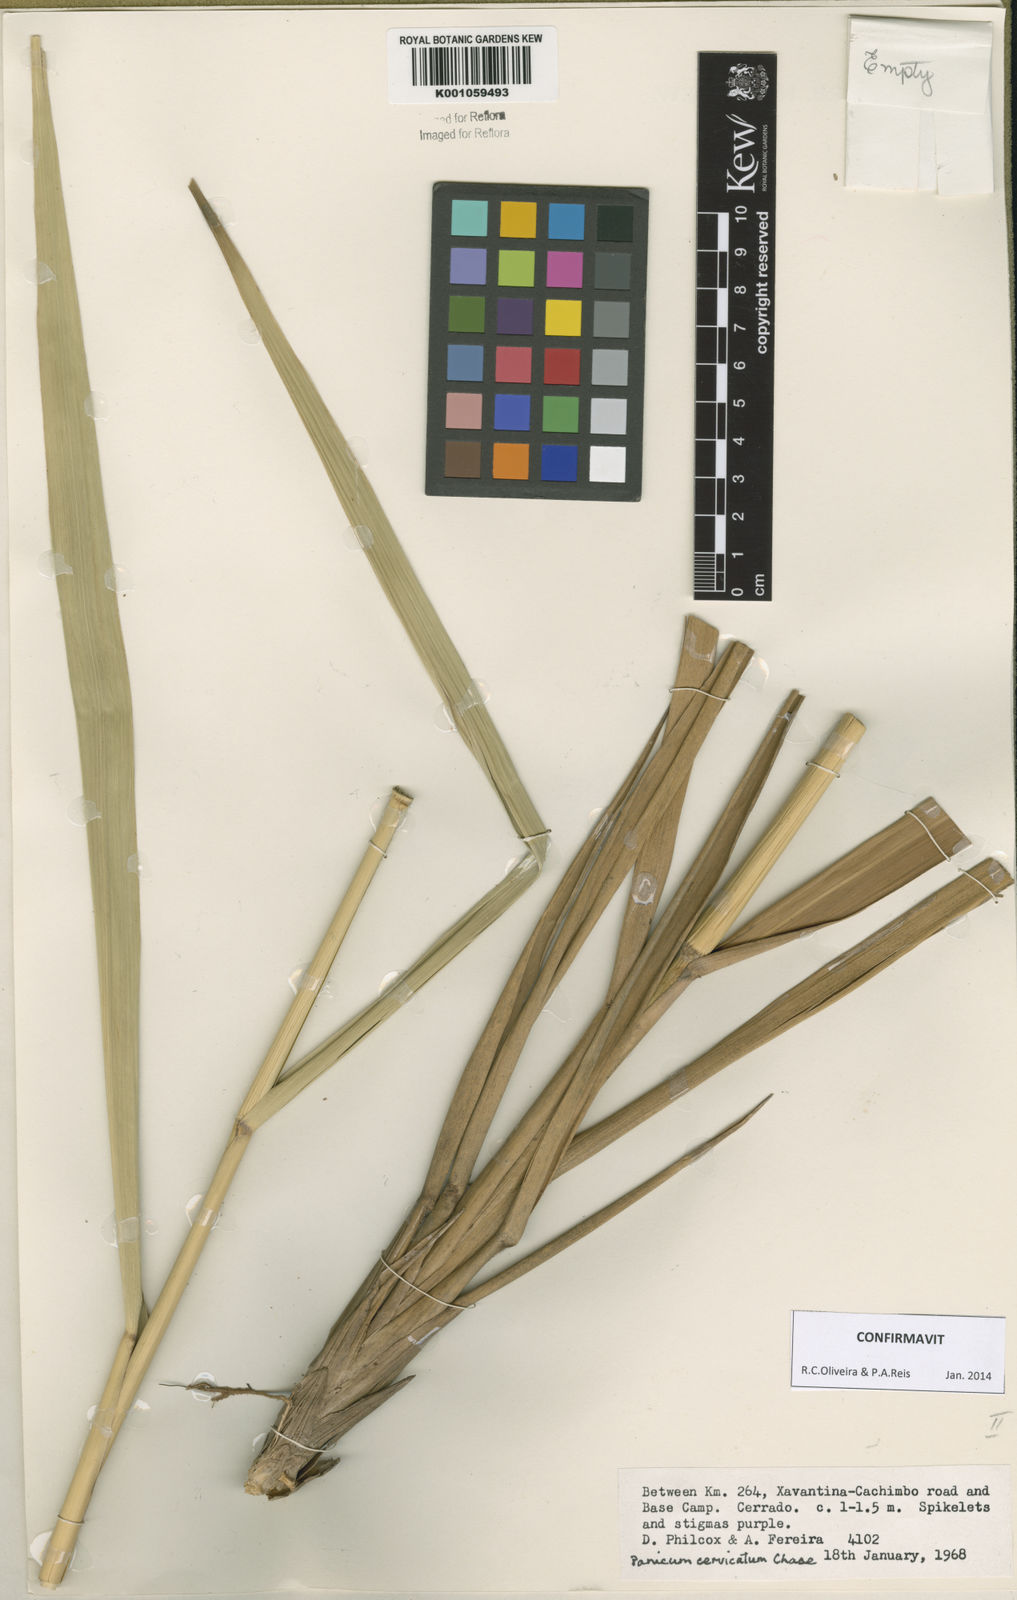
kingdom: Plantae
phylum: Tracheophyta
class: Liliopsida
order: Poales
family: Poaceae
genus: Panicum
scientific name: Panicum cervicatum
